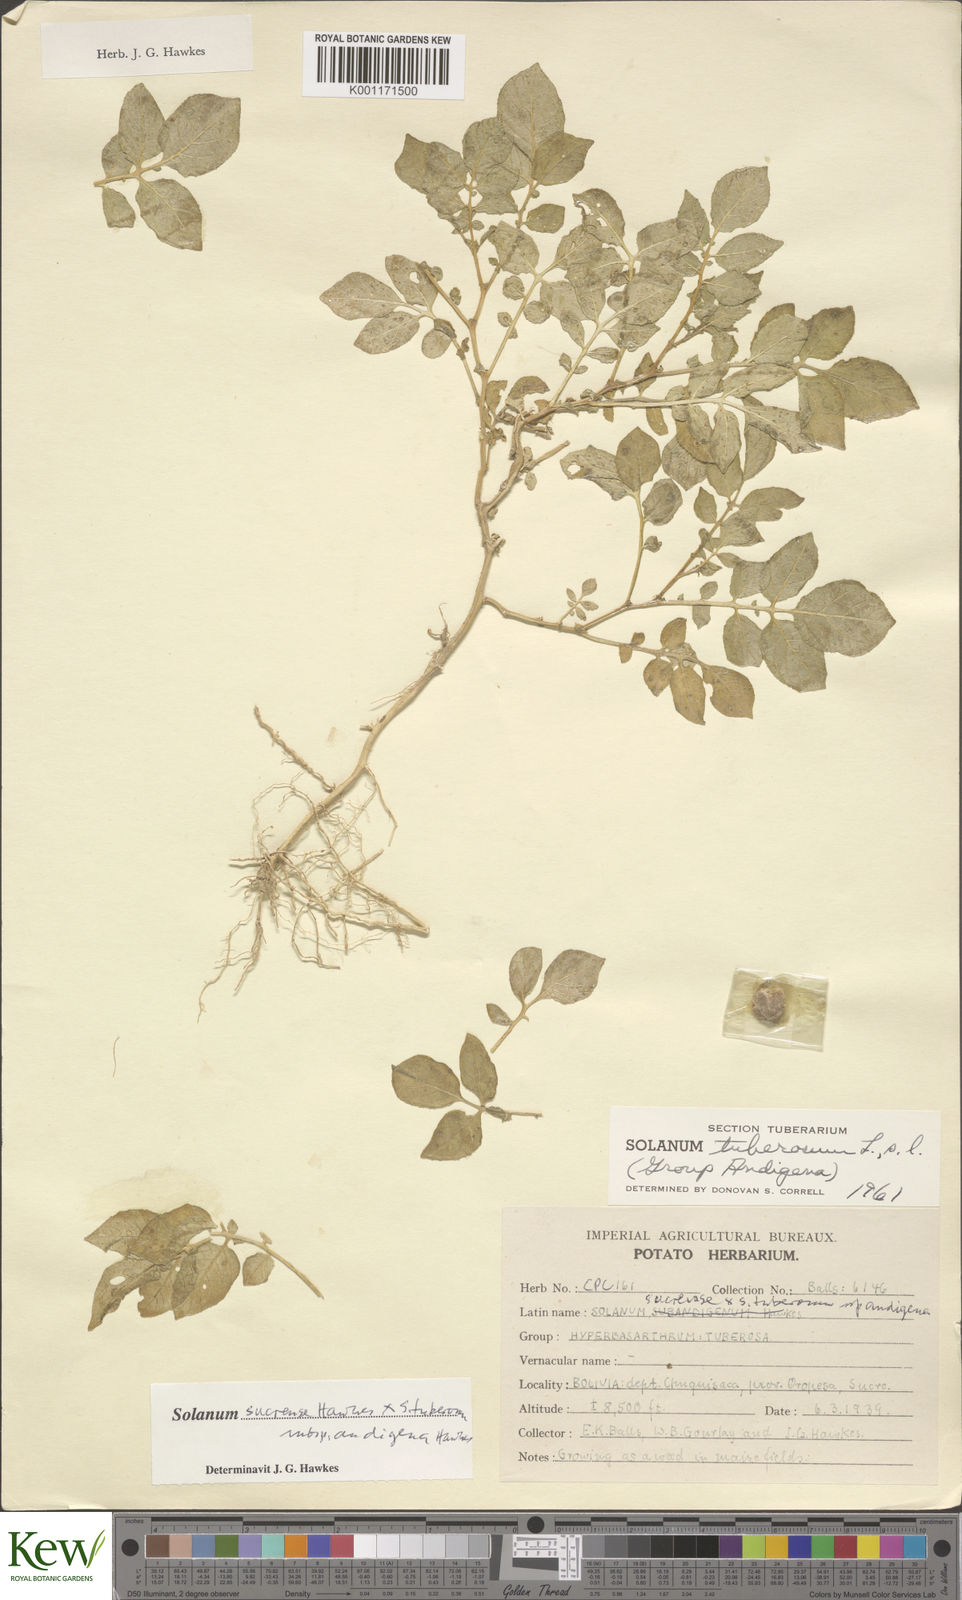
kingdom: Plantae
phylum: Tracheophyta
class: Magnoliopsida
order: Solanales
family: Solanaceae
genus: Solanum
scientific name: Solanum tuberosum
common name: Potato
